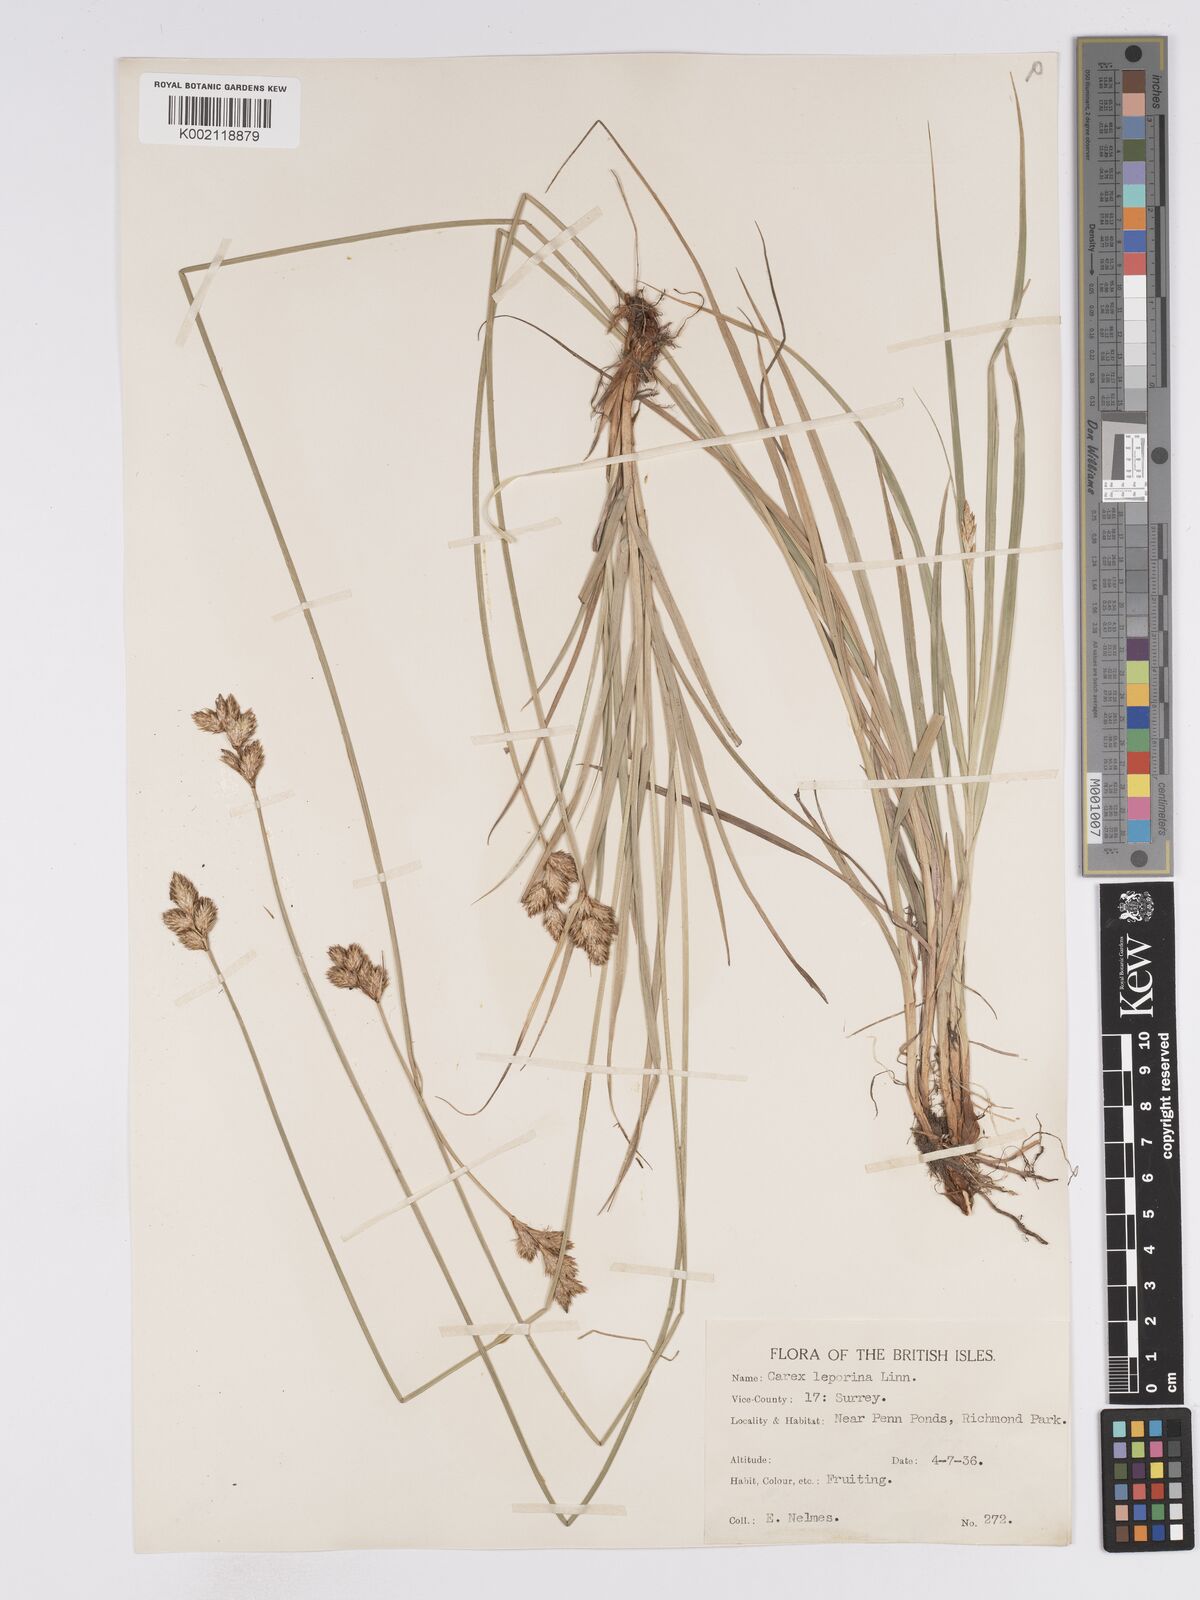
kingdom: Plantae
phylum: Tracheophyta
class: Liliopsida
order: Poales
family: Cyperaceae
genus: Carex
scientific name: Carex leporina
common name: Oval sedge
